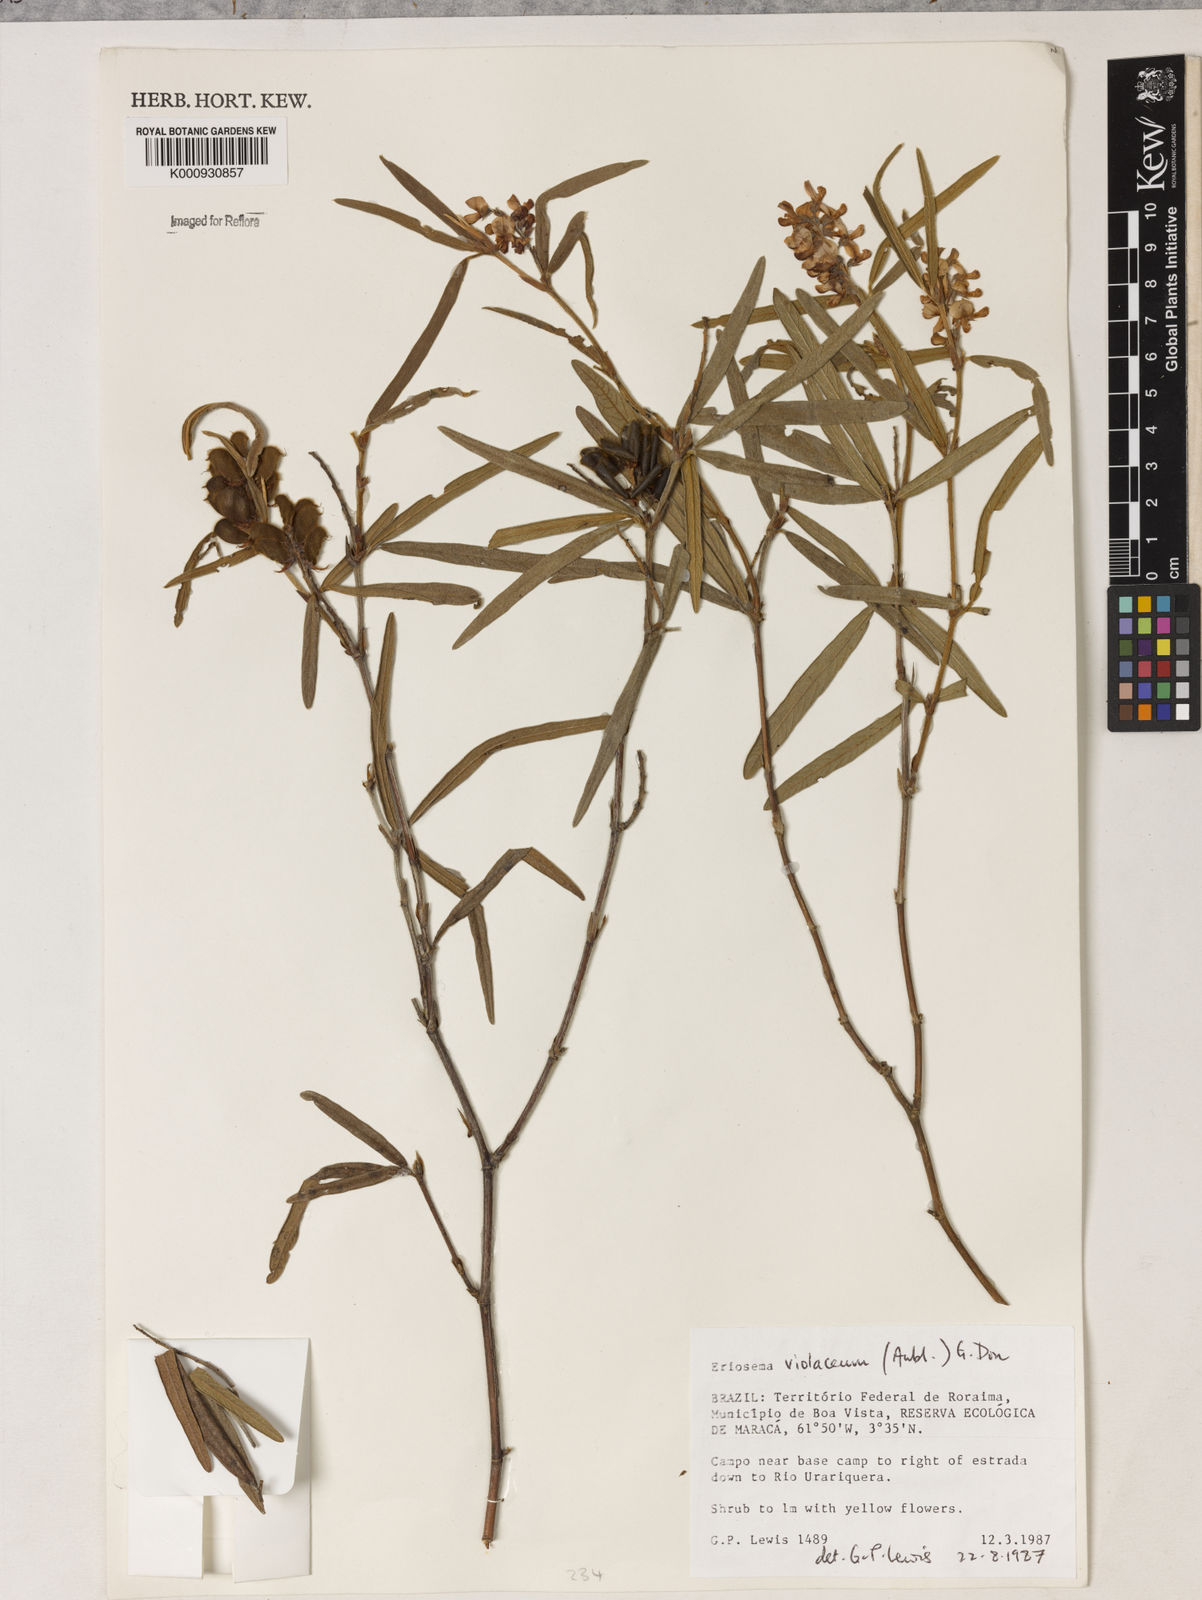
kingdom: Plantae
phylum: Tracheophyta
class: Magnoliopsida
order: Fabales
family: Fabaceae
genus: Eriosema
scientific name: Eriosema violaceum
